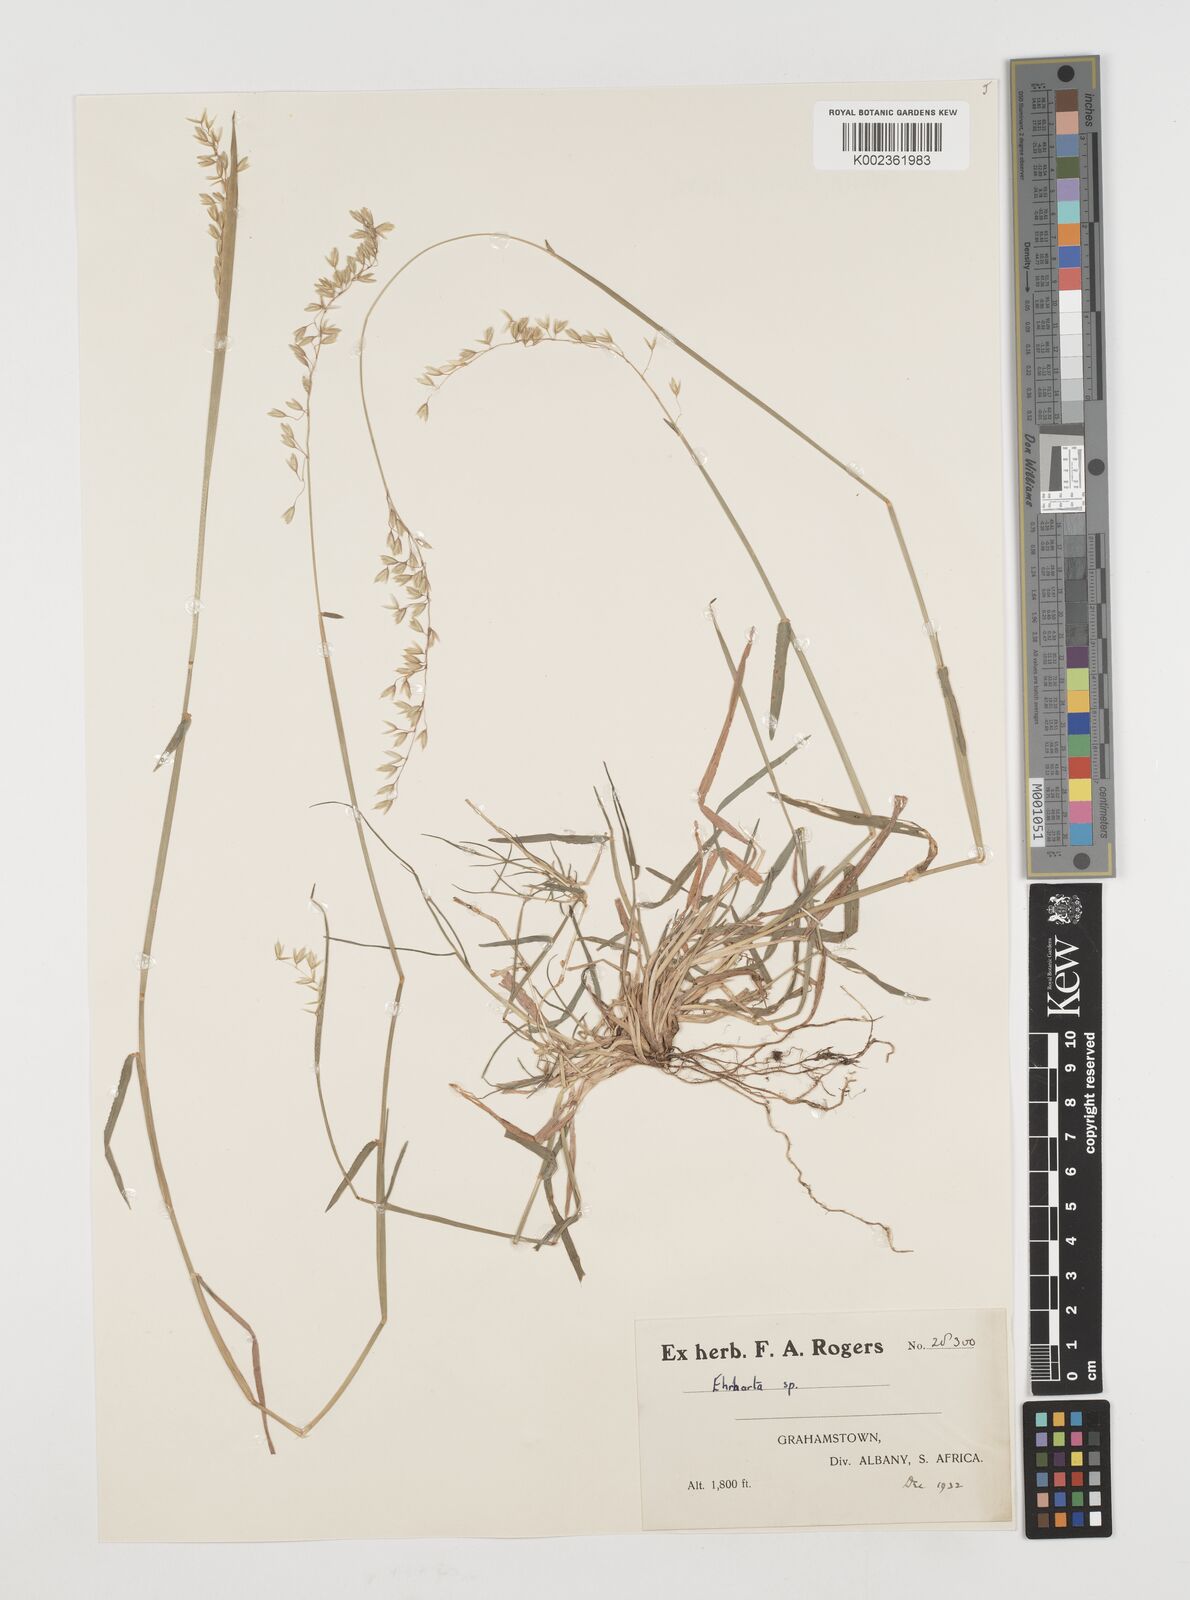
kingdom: Plantae
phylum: Tracheophyta
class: Liliopsida
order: Poales
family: Poaceae
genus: Ehrharta
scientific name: Ehrharta calycina
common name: Perennial veldtgrass
